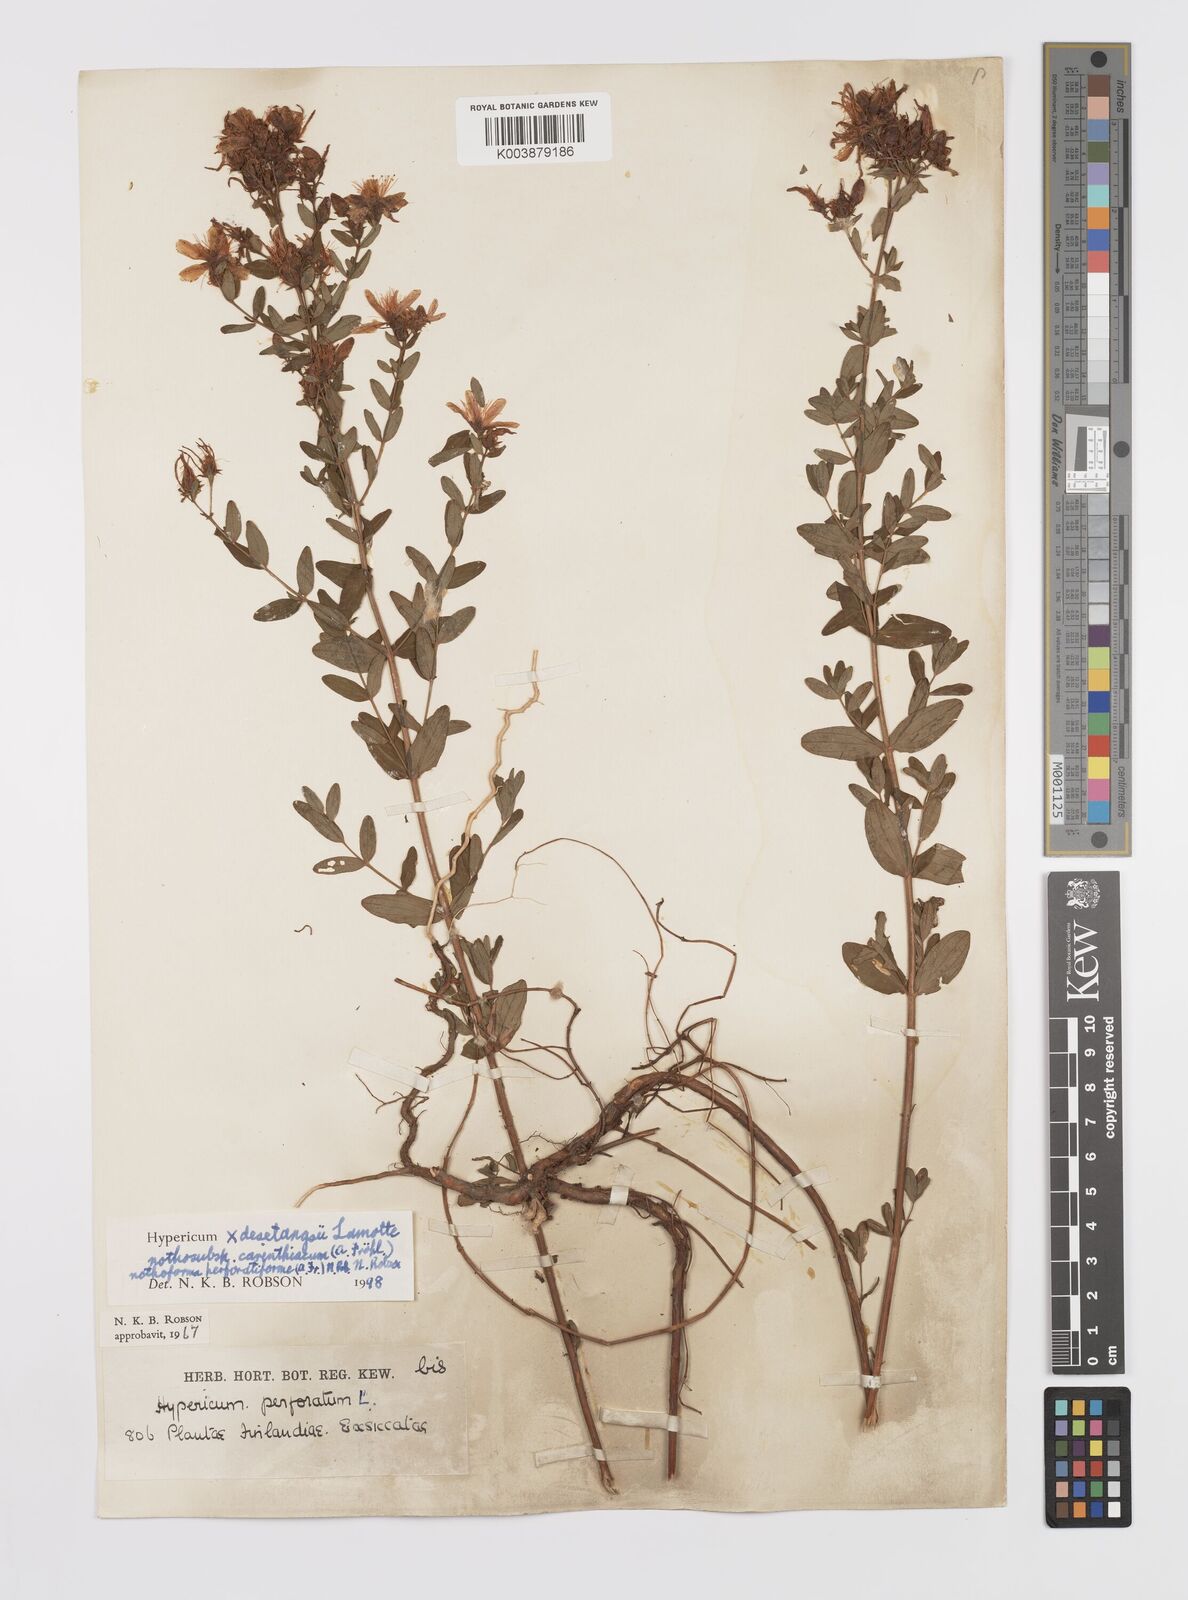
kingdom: Plantae
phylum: Tracheophyta
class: Magnoliopsida
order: Malpighiales
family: Hypericaceae
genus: Hypericum
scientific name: Hypericum carinthiacum
